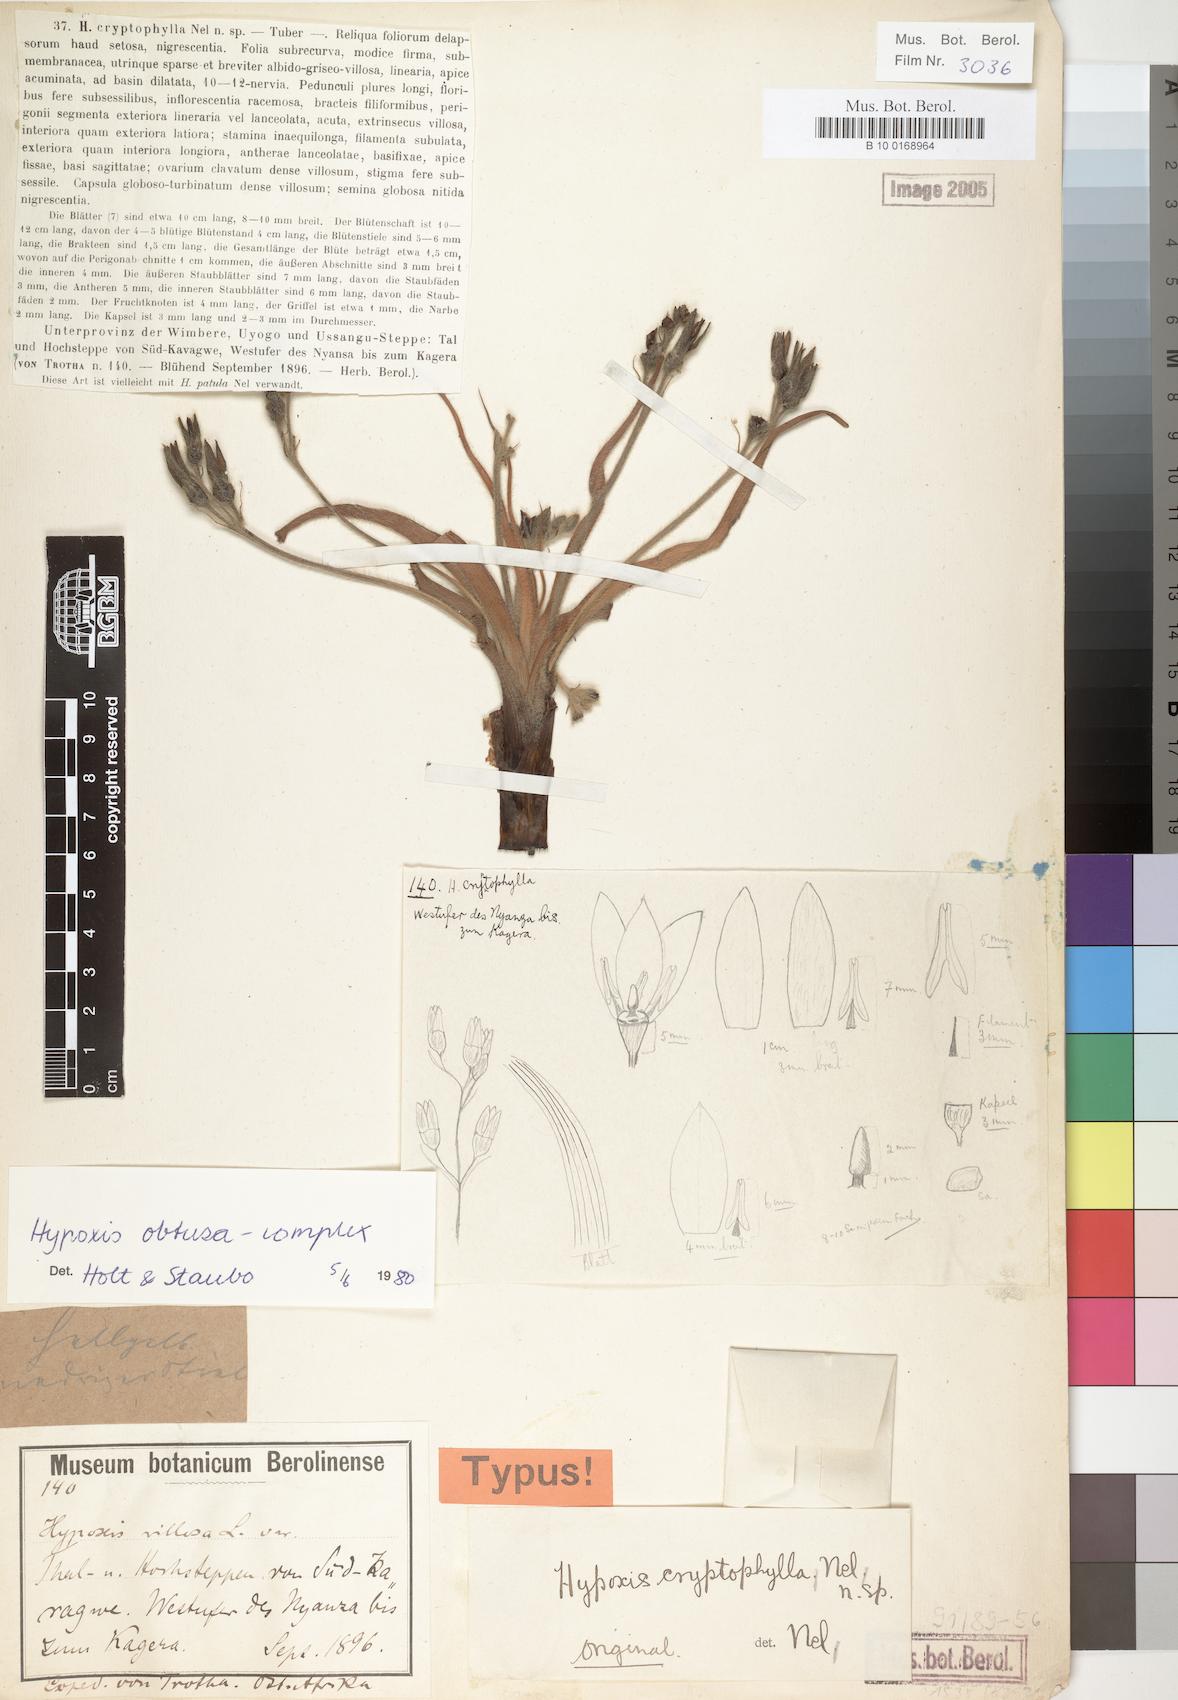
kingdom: Plantae
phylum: Tracheophyta
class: Liliopsida
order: Asparagales
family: Hypoxidaceae
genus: Hypoxis
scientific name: Hypoxis
